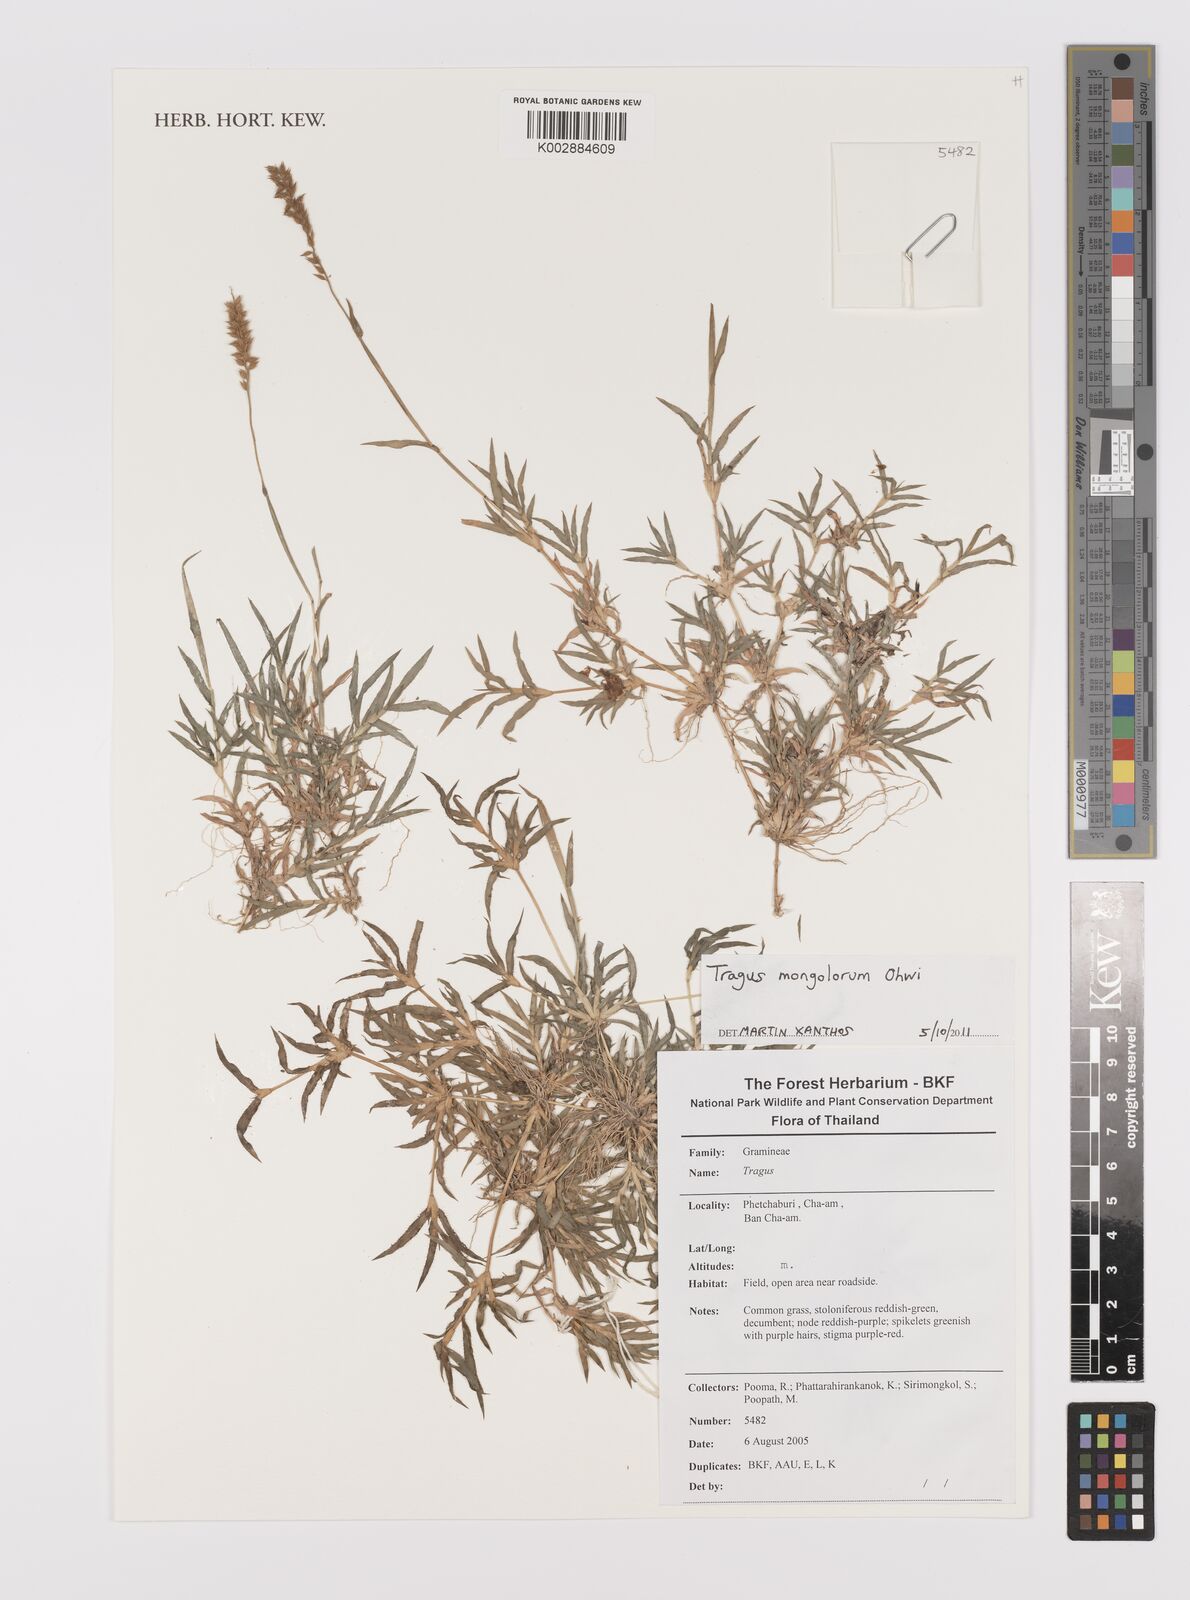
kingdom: Plantae
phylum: Tracheophyta
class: Liliopsida
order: Poales
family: Poaceae
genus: Tragus
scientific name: Tragus mongolorum
